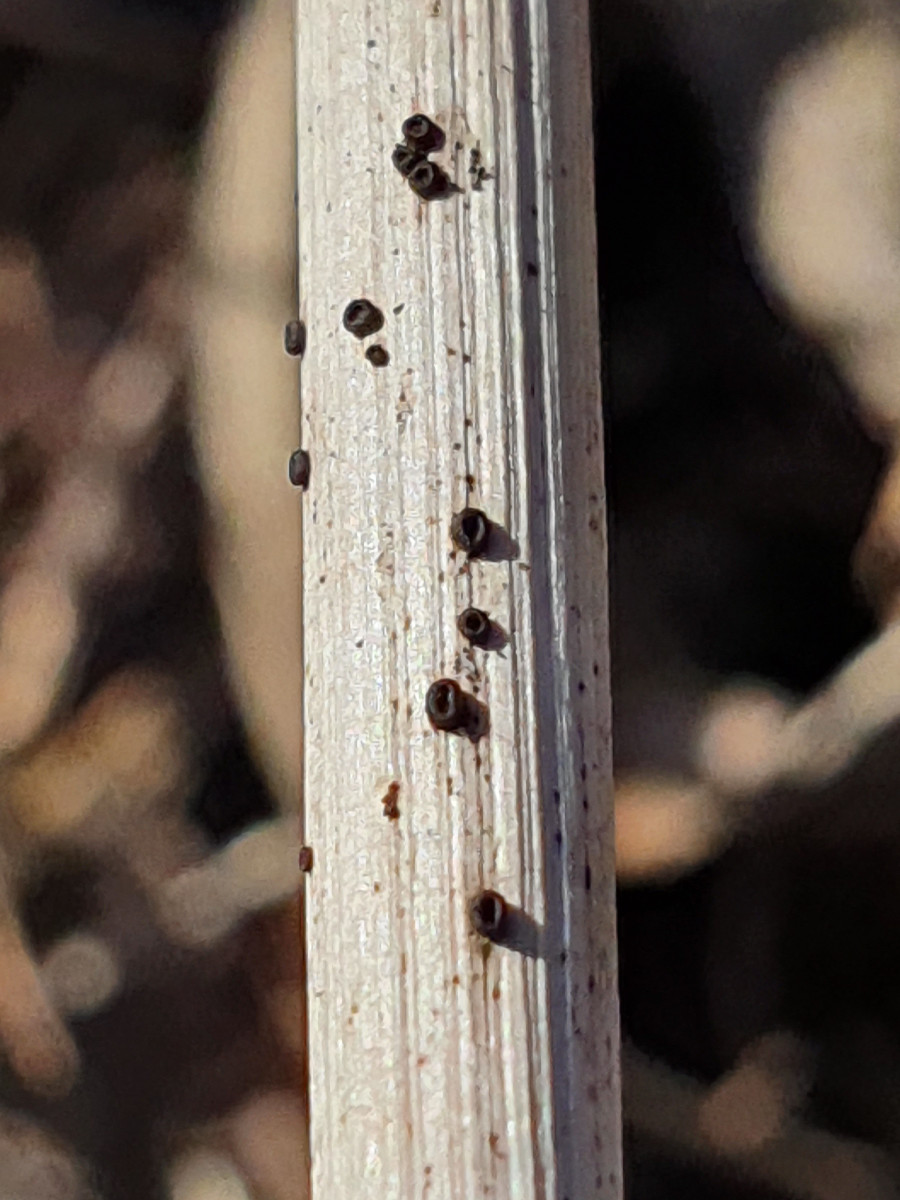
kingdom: Fungi
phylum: Ascomycota
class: Leotiomycetes
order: Helotiales
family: Heterosphaeriaceae
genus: Heterosphaeria
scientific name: Heterosphaeria
